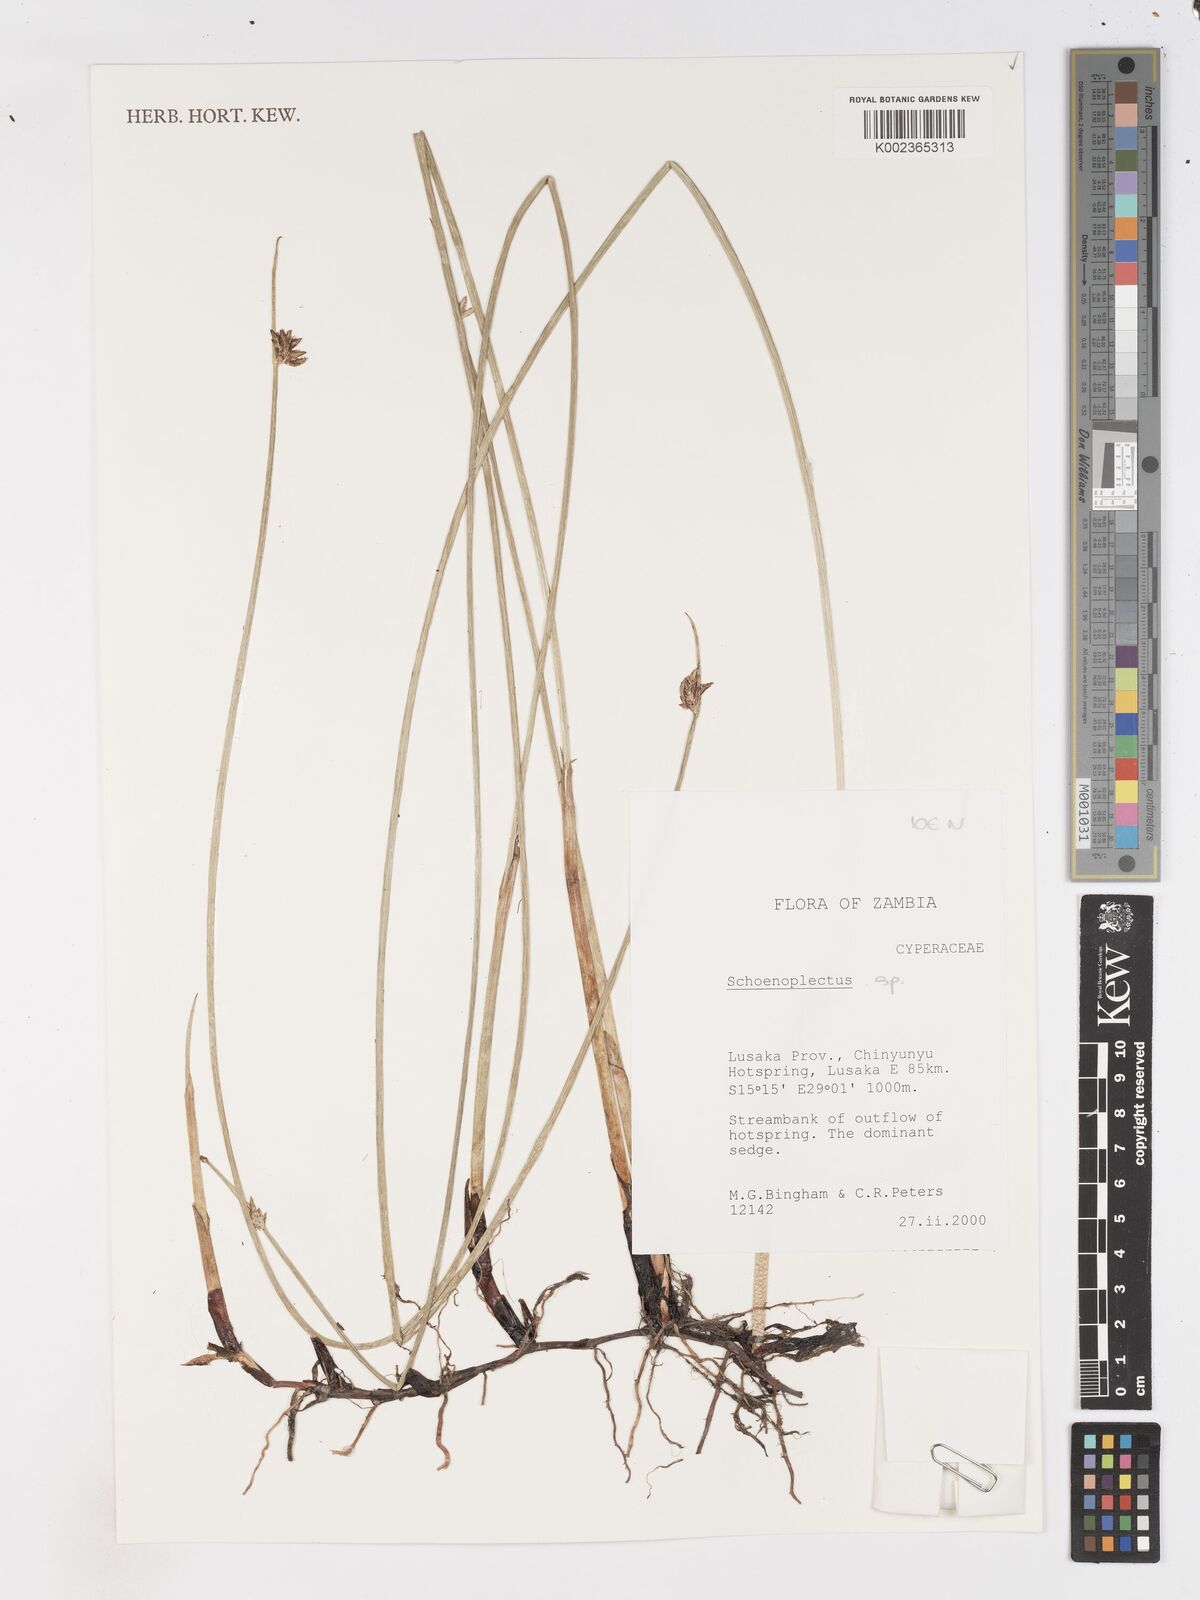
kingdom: Plantae
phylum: Tracheophyta
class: Liliopsida
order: Poales
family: Cyperaceae
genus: Schoenoplectus
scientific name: Schoenoplectus
